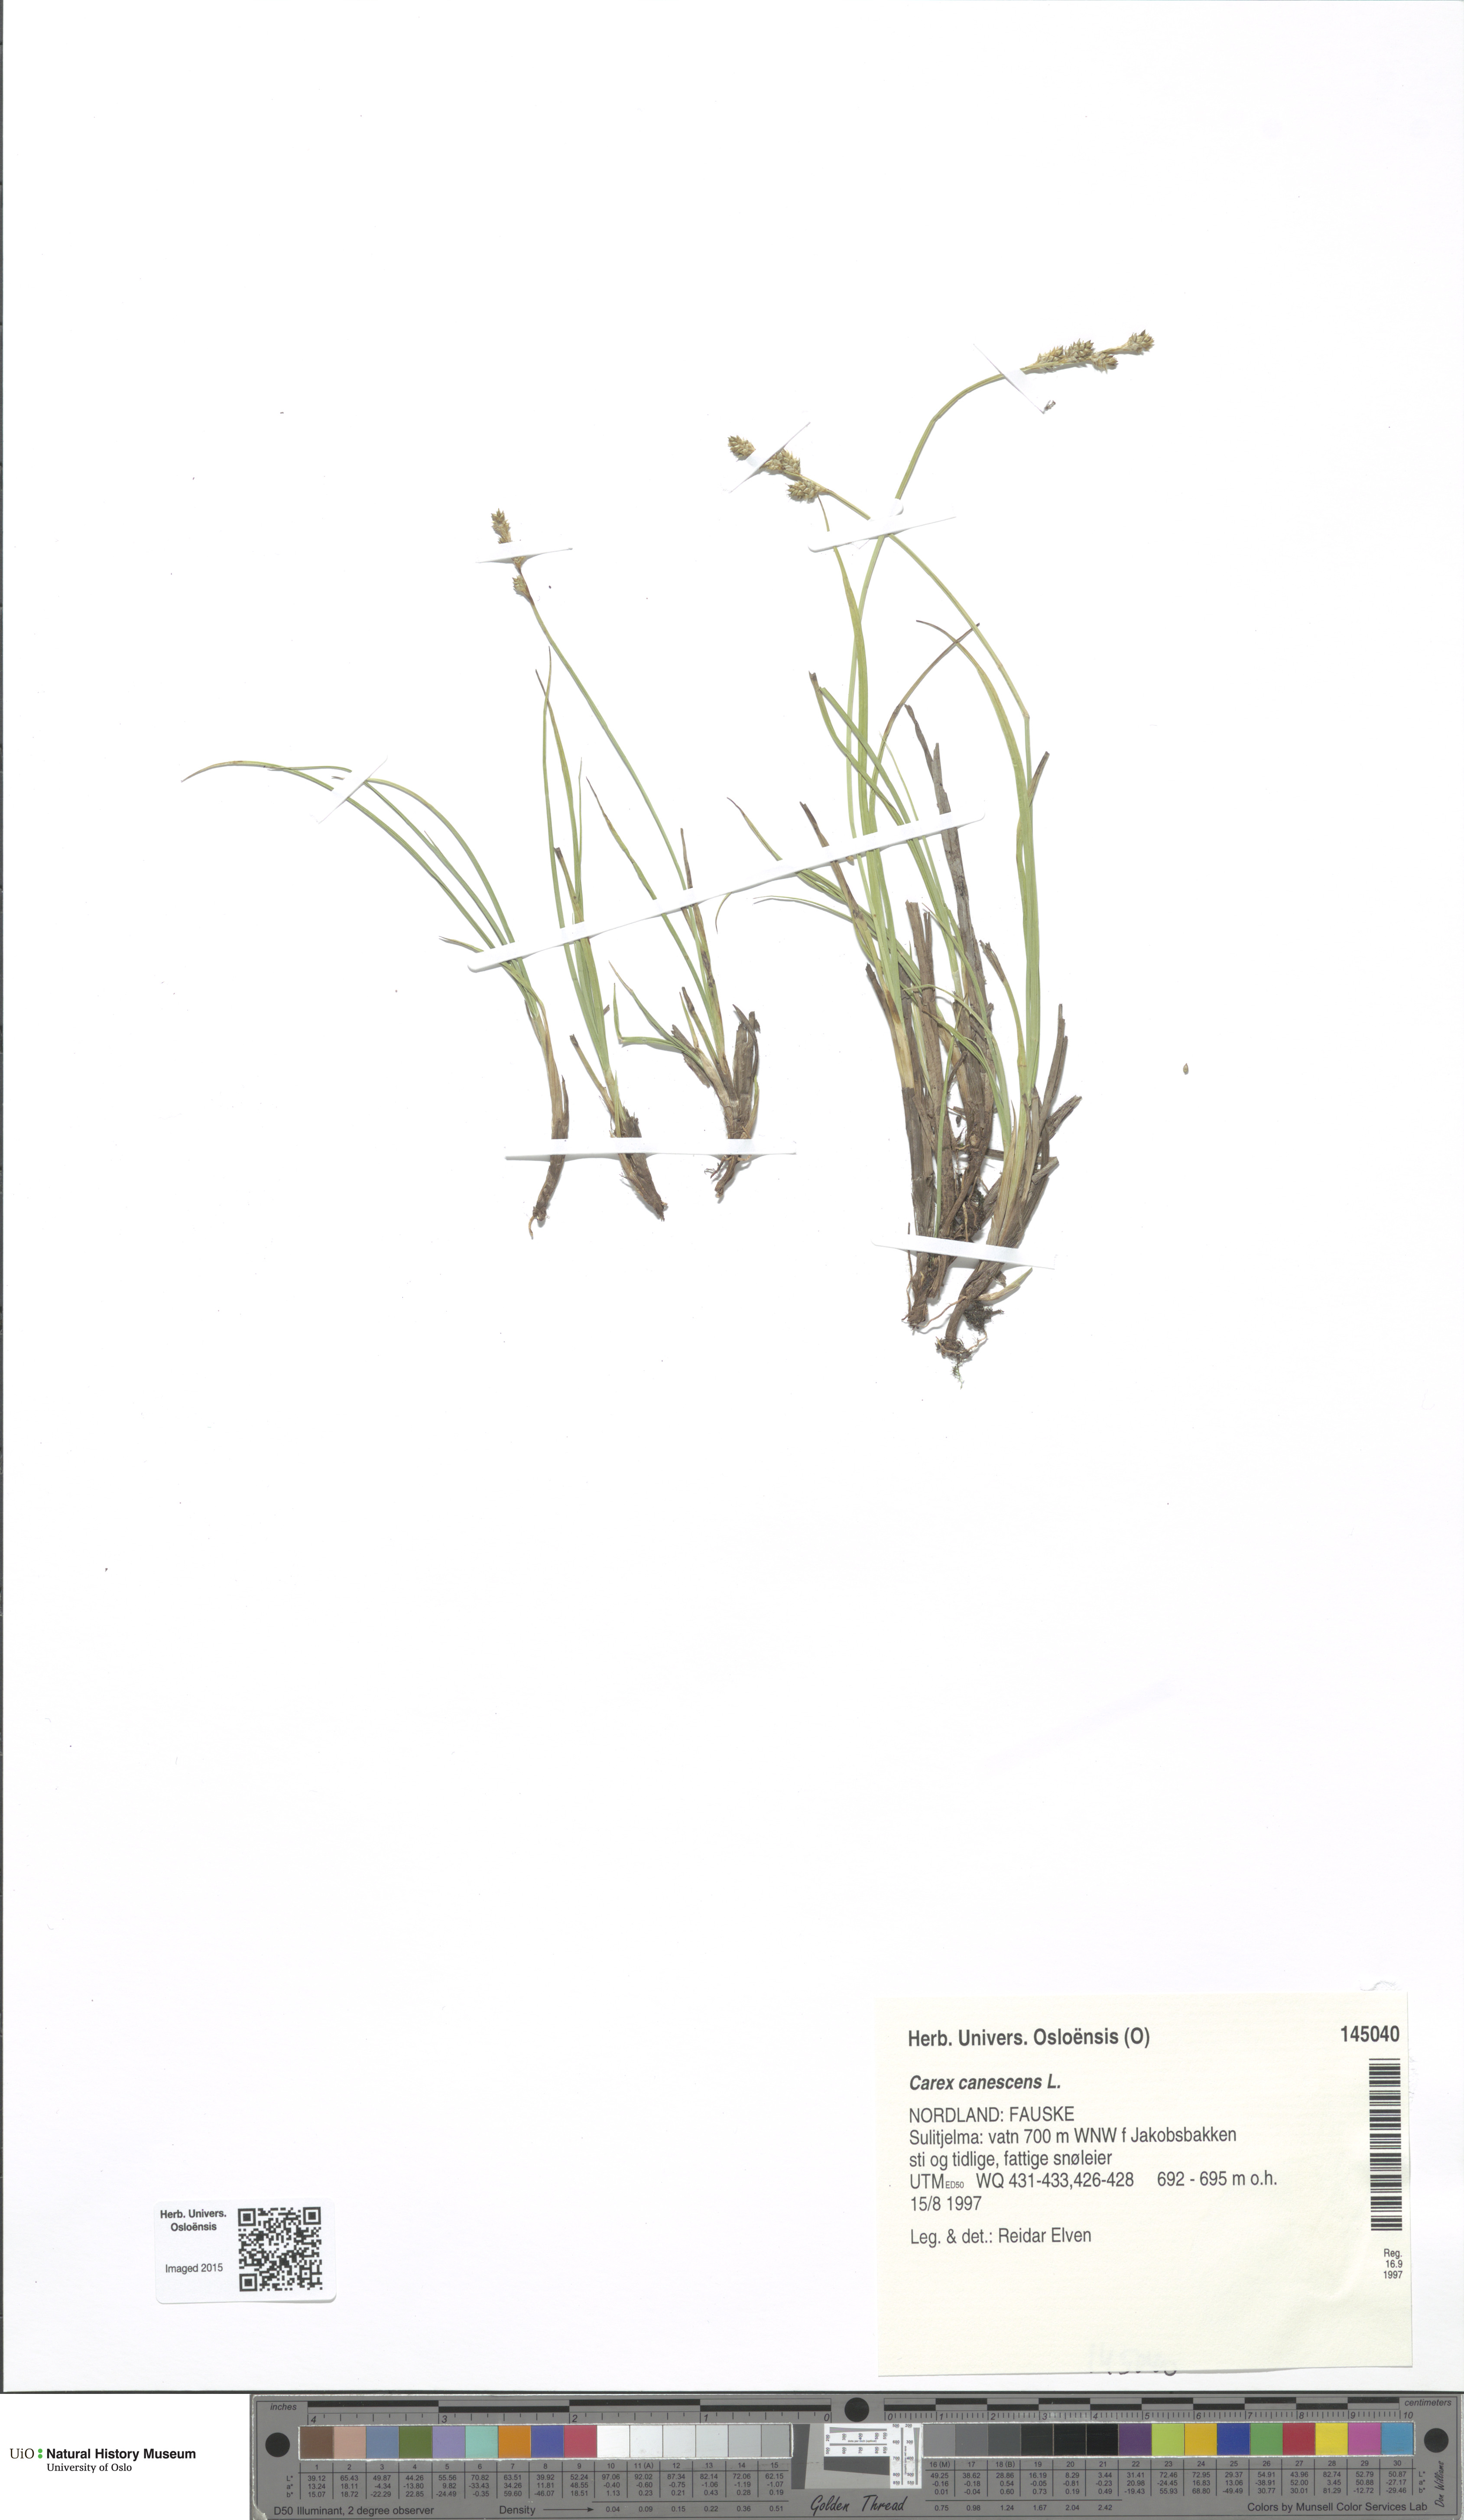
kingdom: Plantae
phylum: Tracheophyta
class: Liliopsida
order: Poales
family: Cyperaceae
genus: Carex
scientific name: Carex canescens
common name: White sedge
